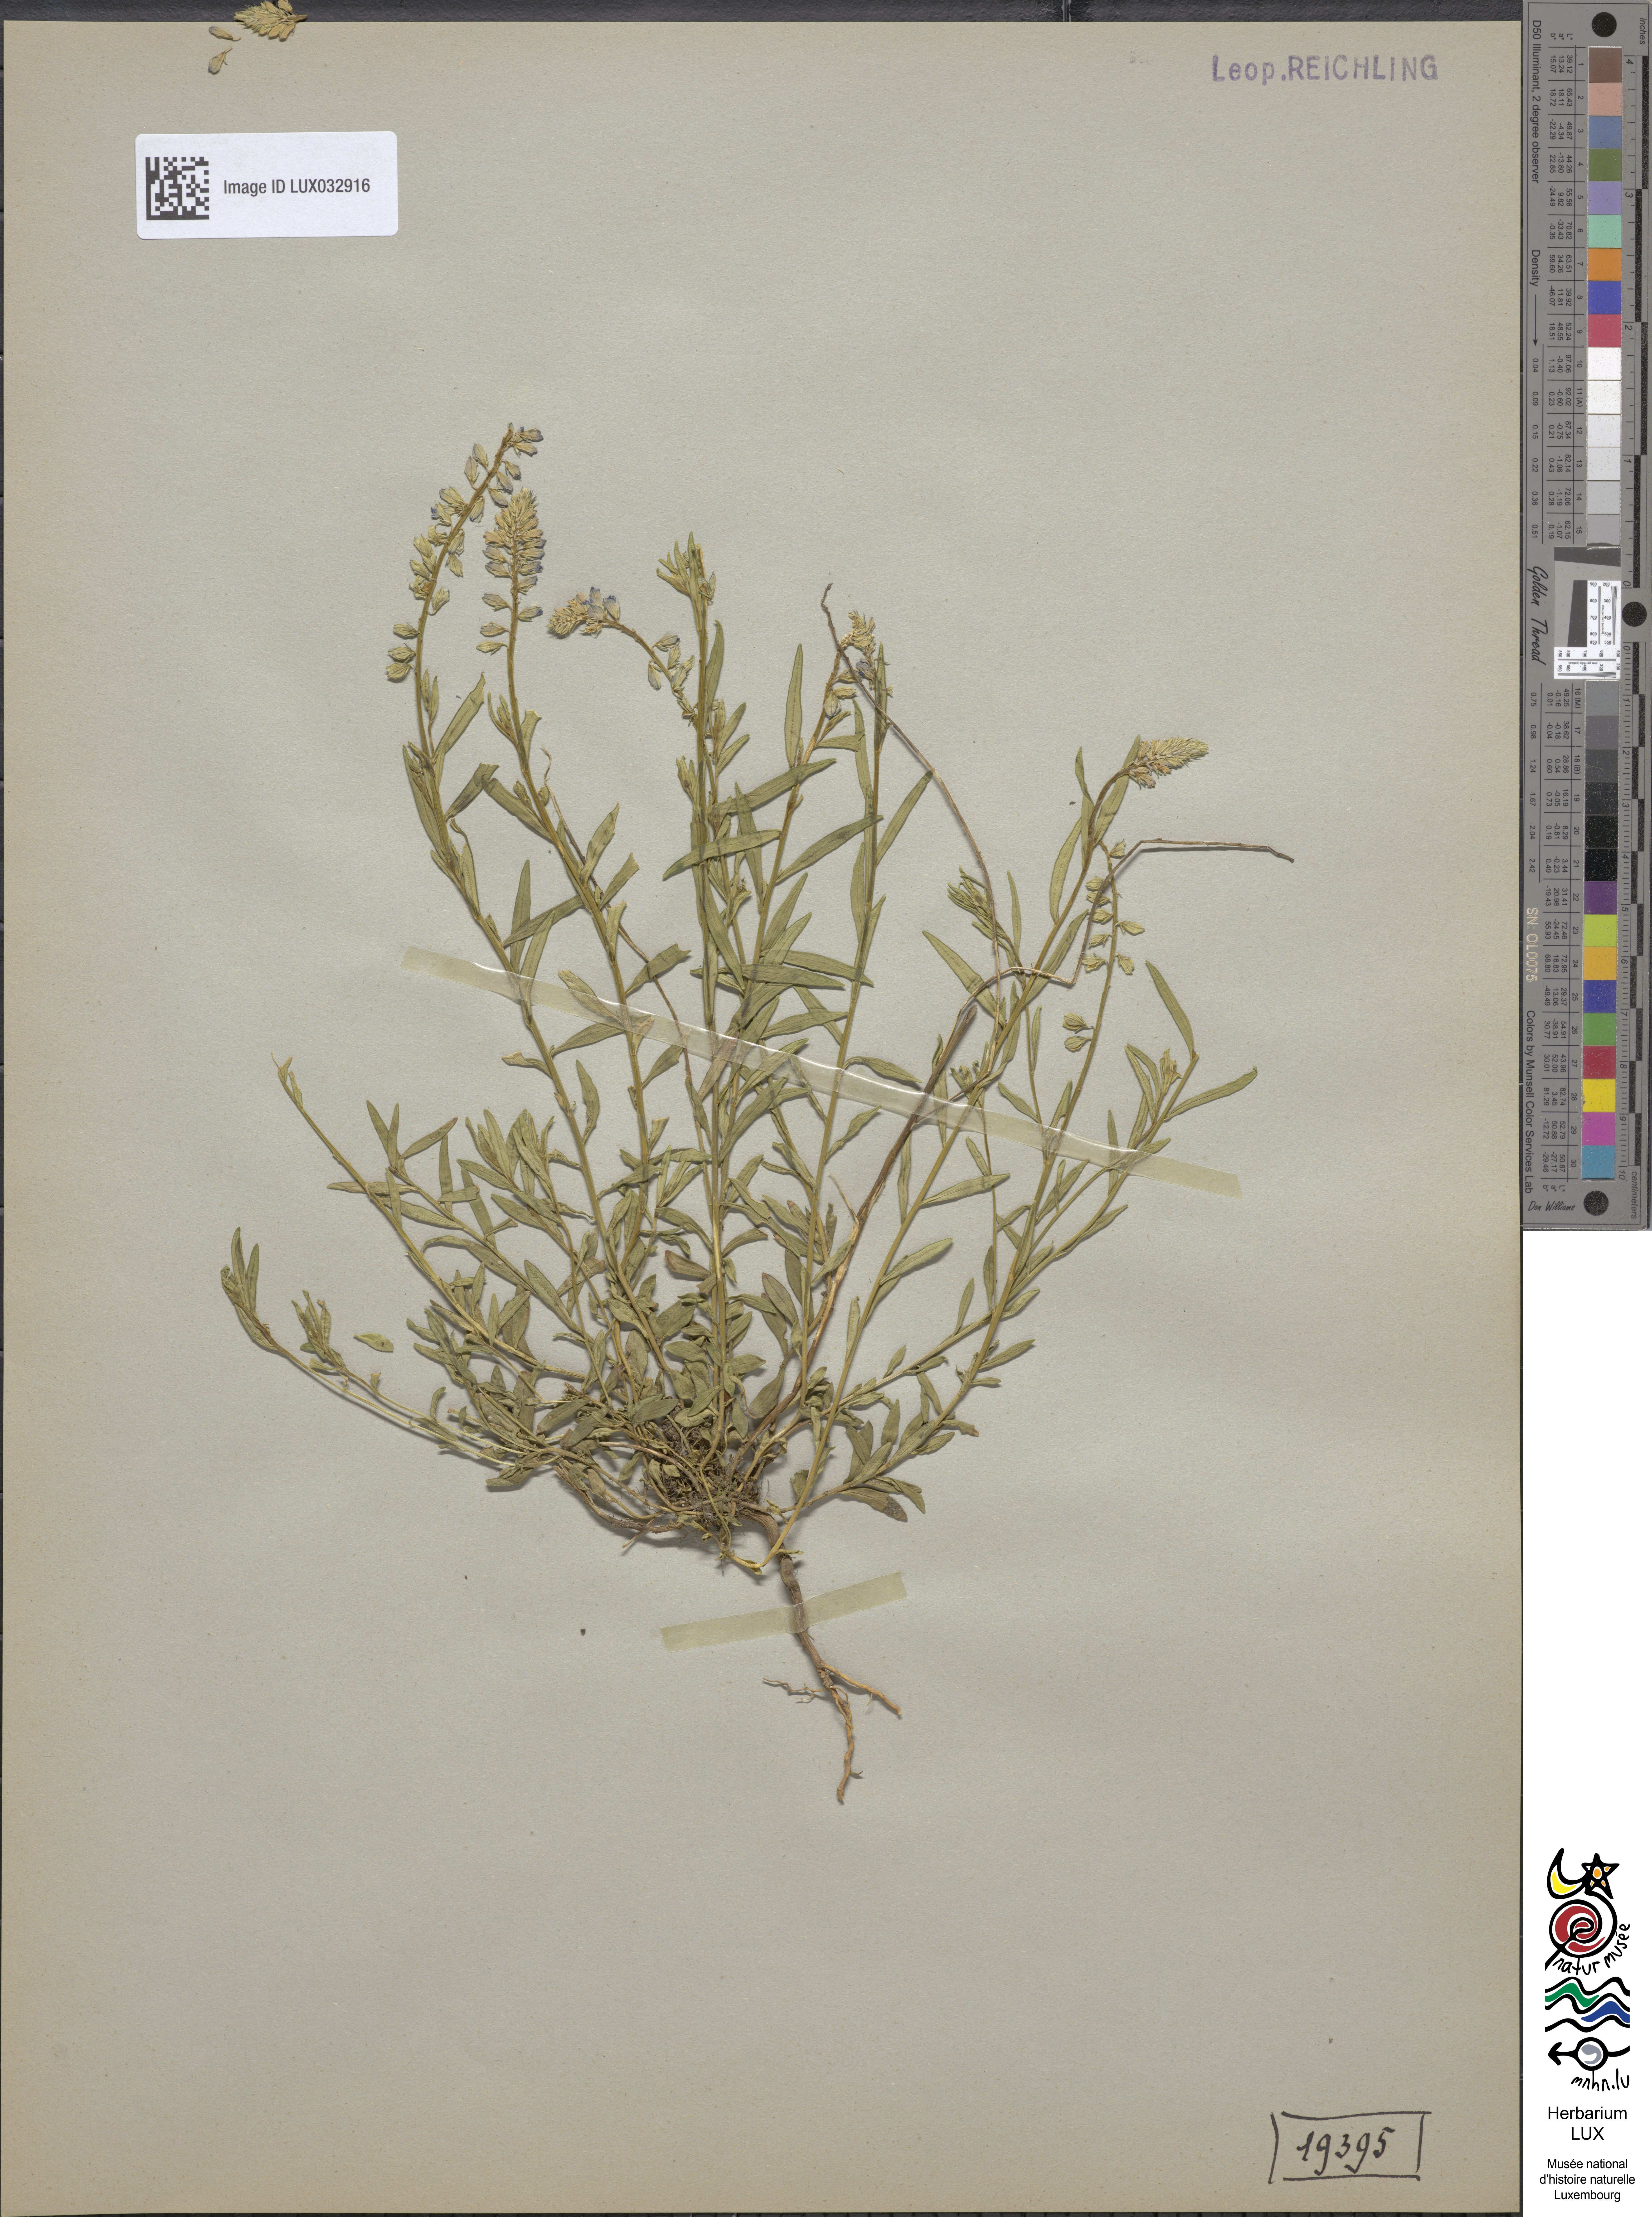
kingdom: Plantae
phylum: Tracheophyta
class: Magnoliopsida
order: Fabales
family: Polygalaceae
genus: Polygala
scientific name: Polygala comosa
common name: Tufted milkwort
